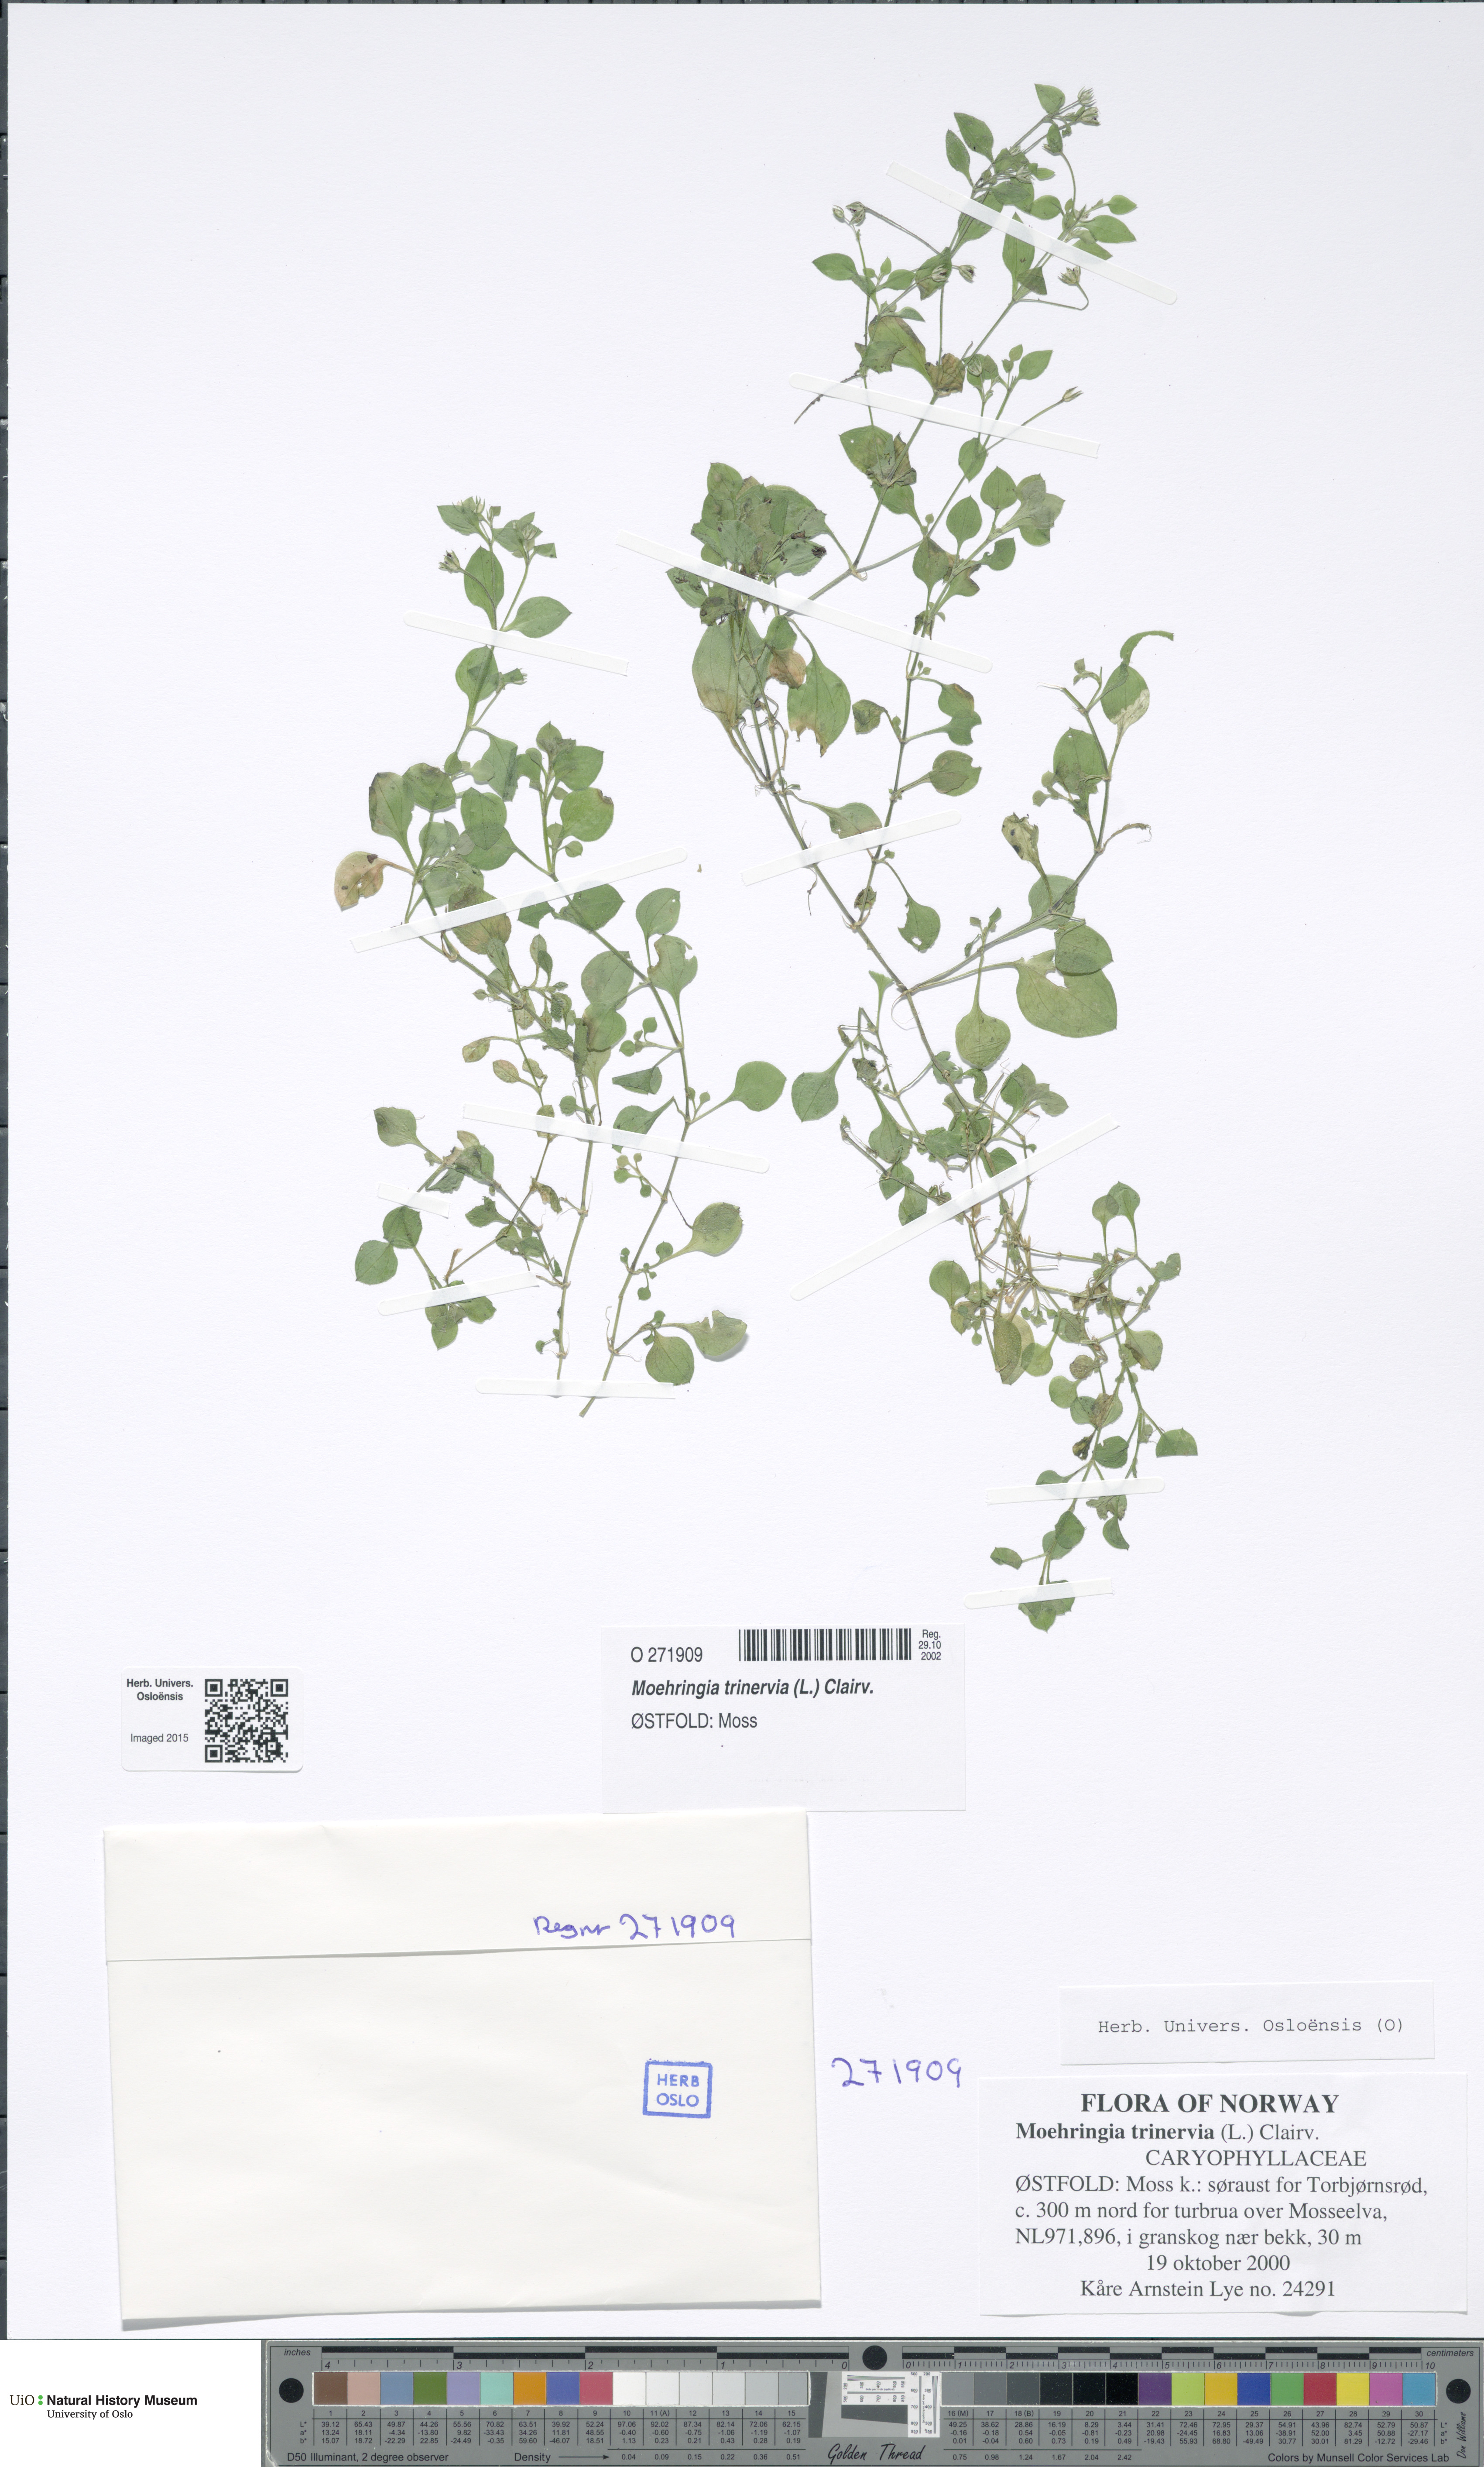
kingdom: Plantae
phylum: Tracheophyta
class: Magnoliopsida
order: Caryophyllales
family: Caryophyllaceae
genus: Moehringia
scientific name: Moehringia trinervia
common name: Three-nerved sandwort
